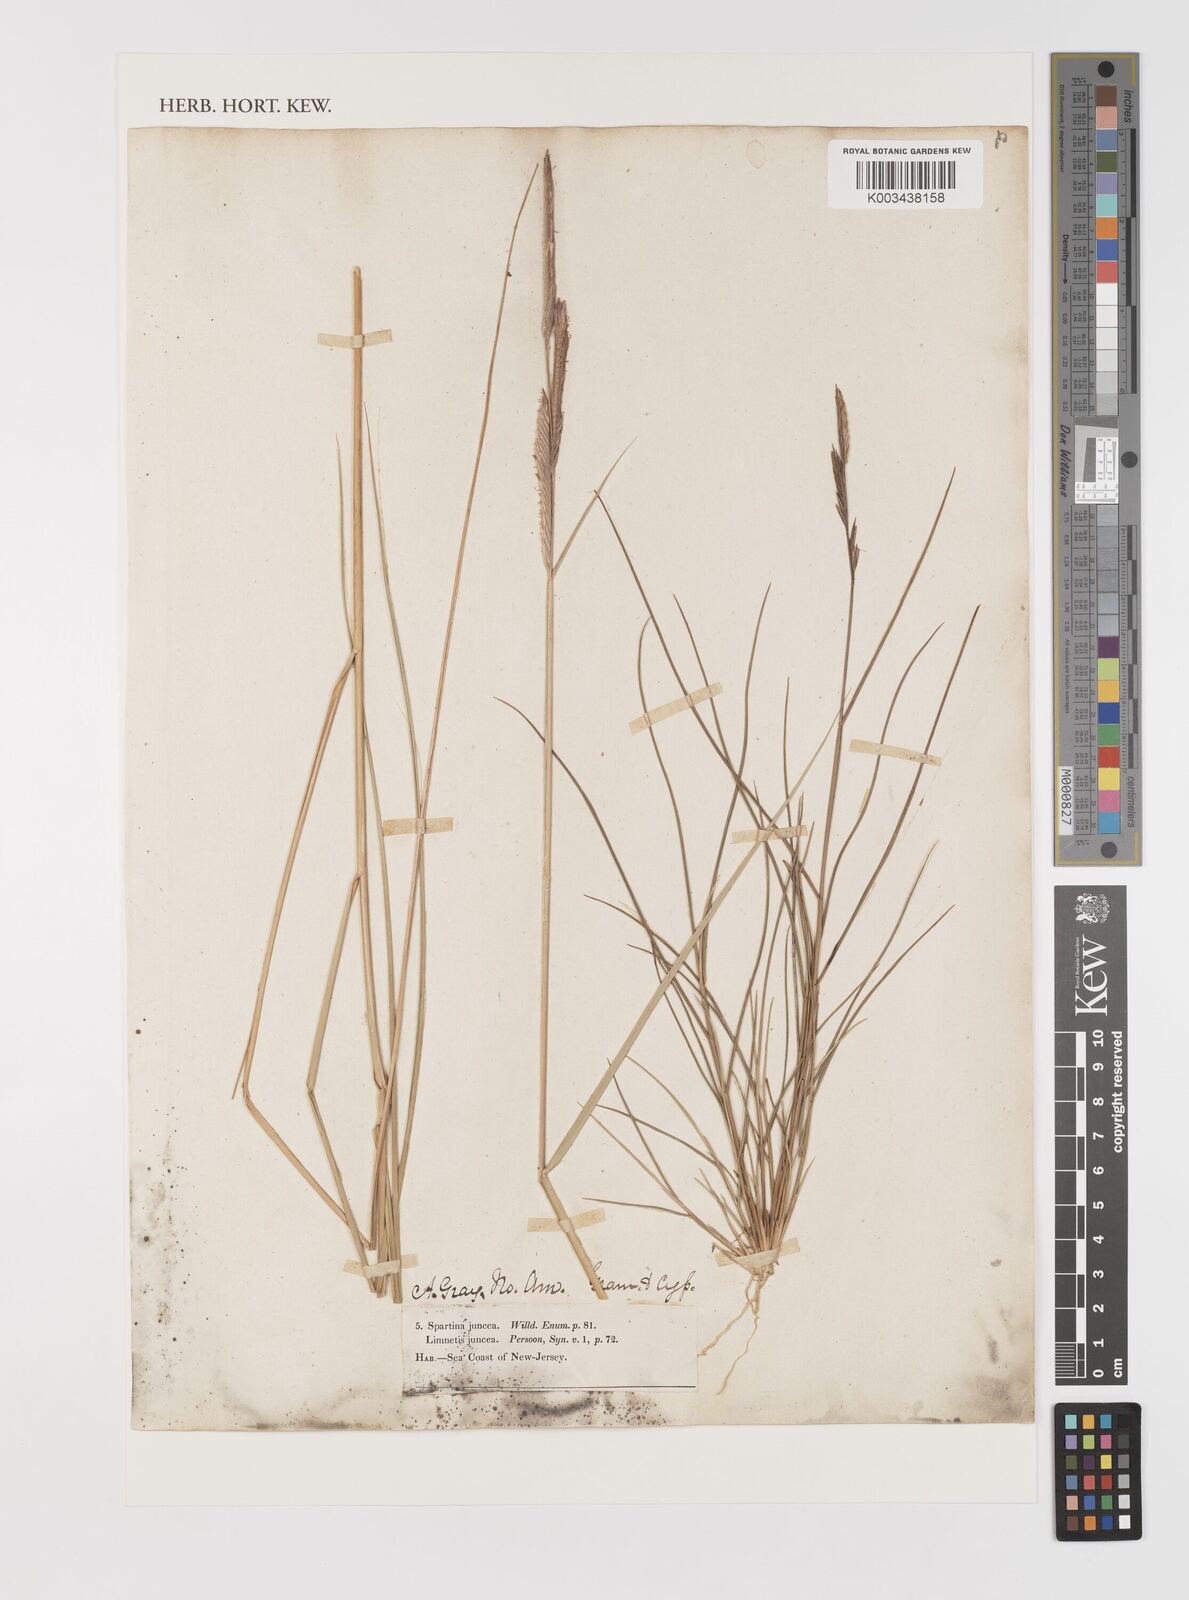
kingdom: Plantae
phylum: Tracheophyta
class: Liliopsida
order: Poales
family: Poaceae
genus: Sporobolus
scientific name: Sporobolus pumilus
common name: Highwater grass
